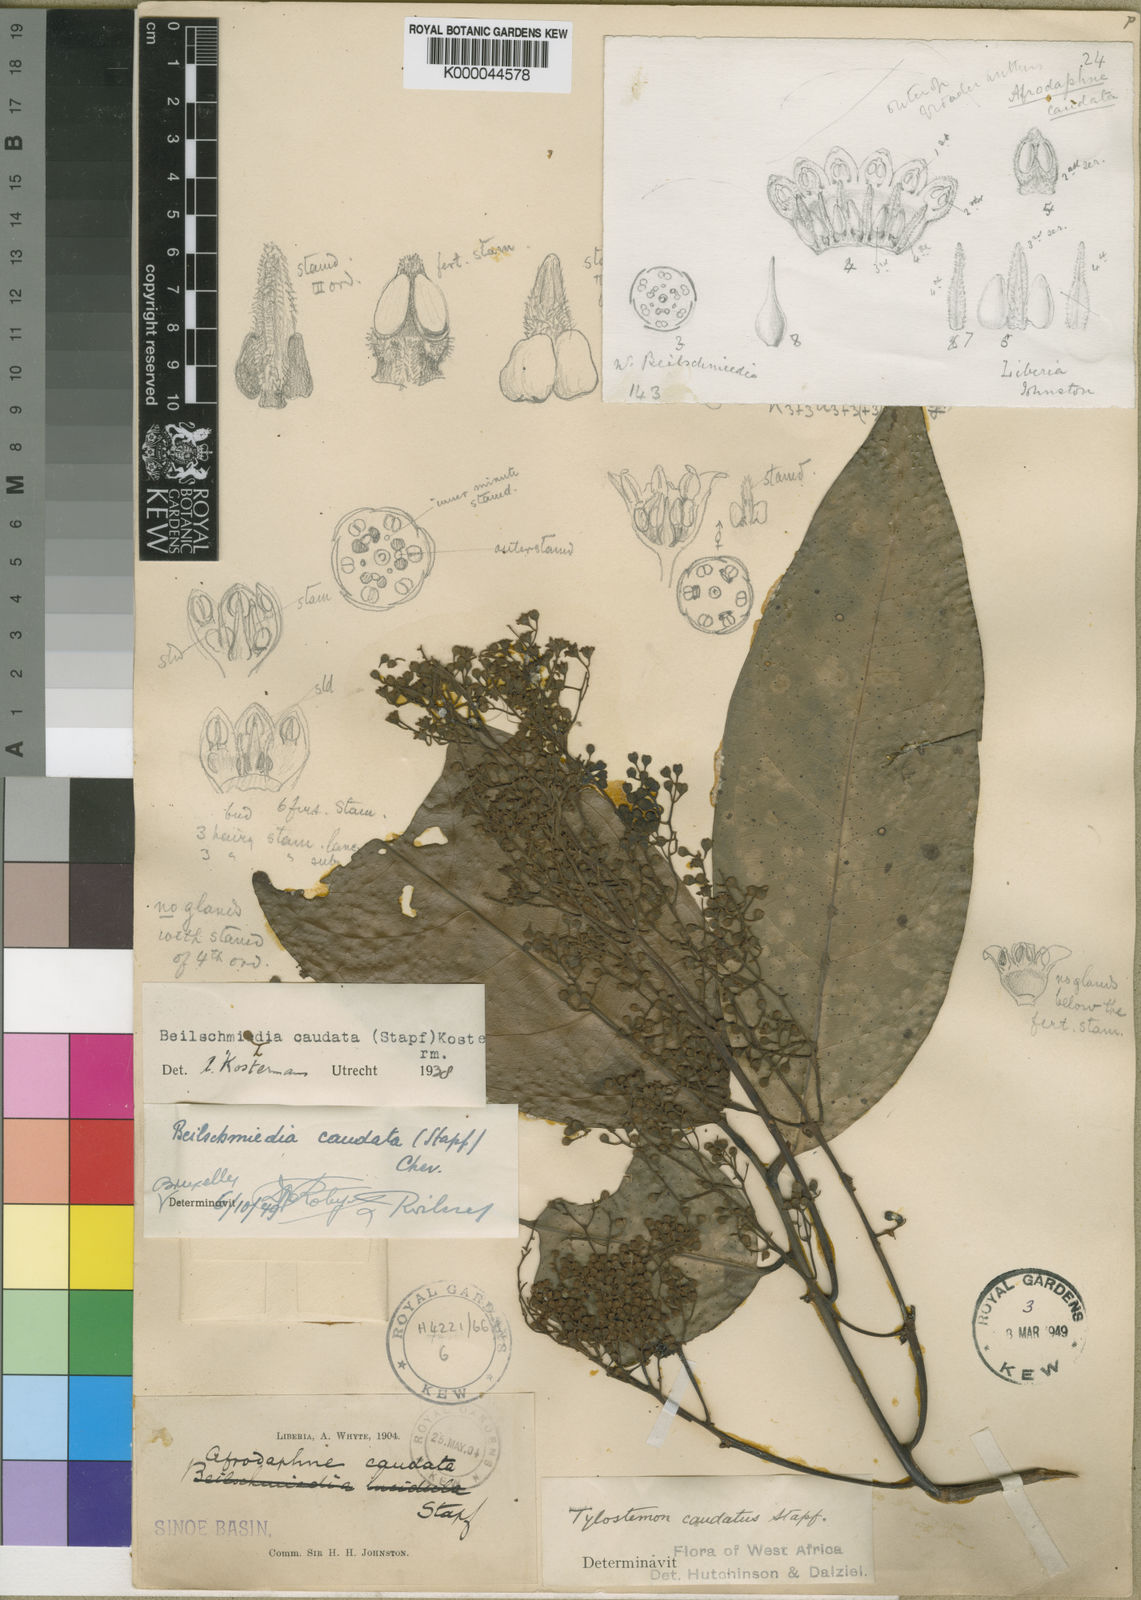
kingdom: Plantae
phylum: Tracheophyta
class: Magnoliopsida
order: Laurales
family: Lauraceae
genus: Beilschmiedia
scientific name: Beilschmiedia caudata
